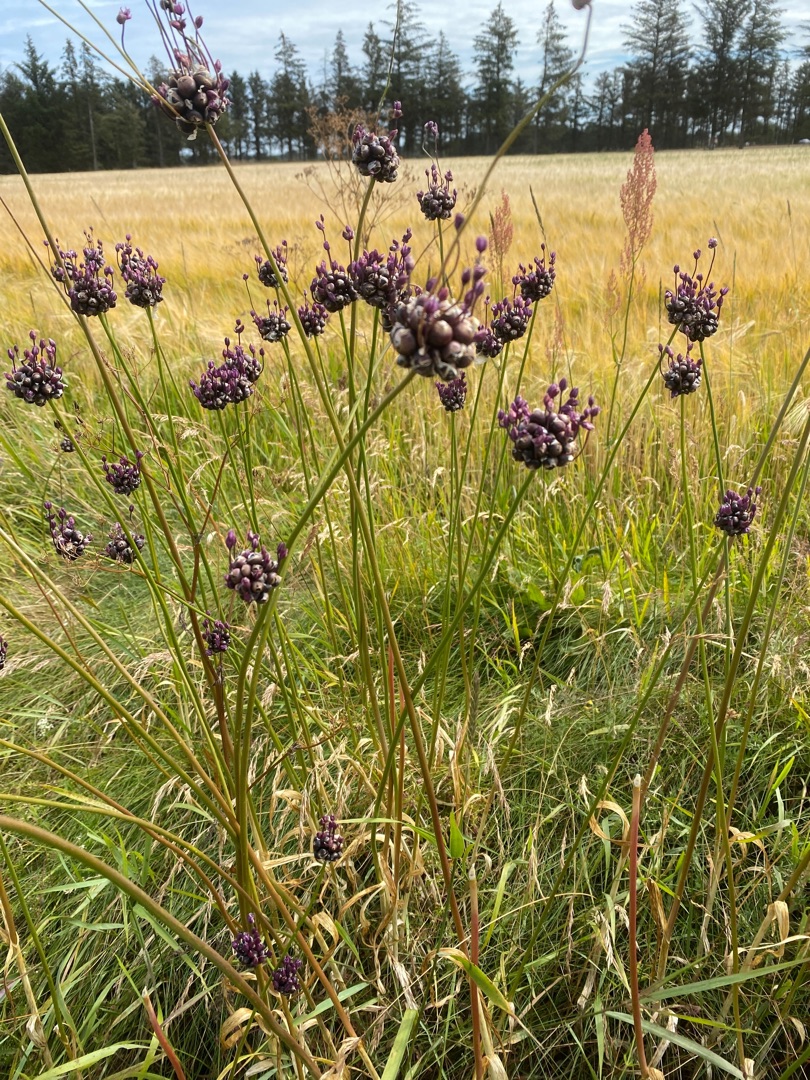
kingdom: Plantae
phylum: Tracheophyta
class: Liliopsida
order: Asparagales
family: Amaryllidaceae
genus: Allium
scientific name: Allium scorodoprasum
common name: Skov-løg
